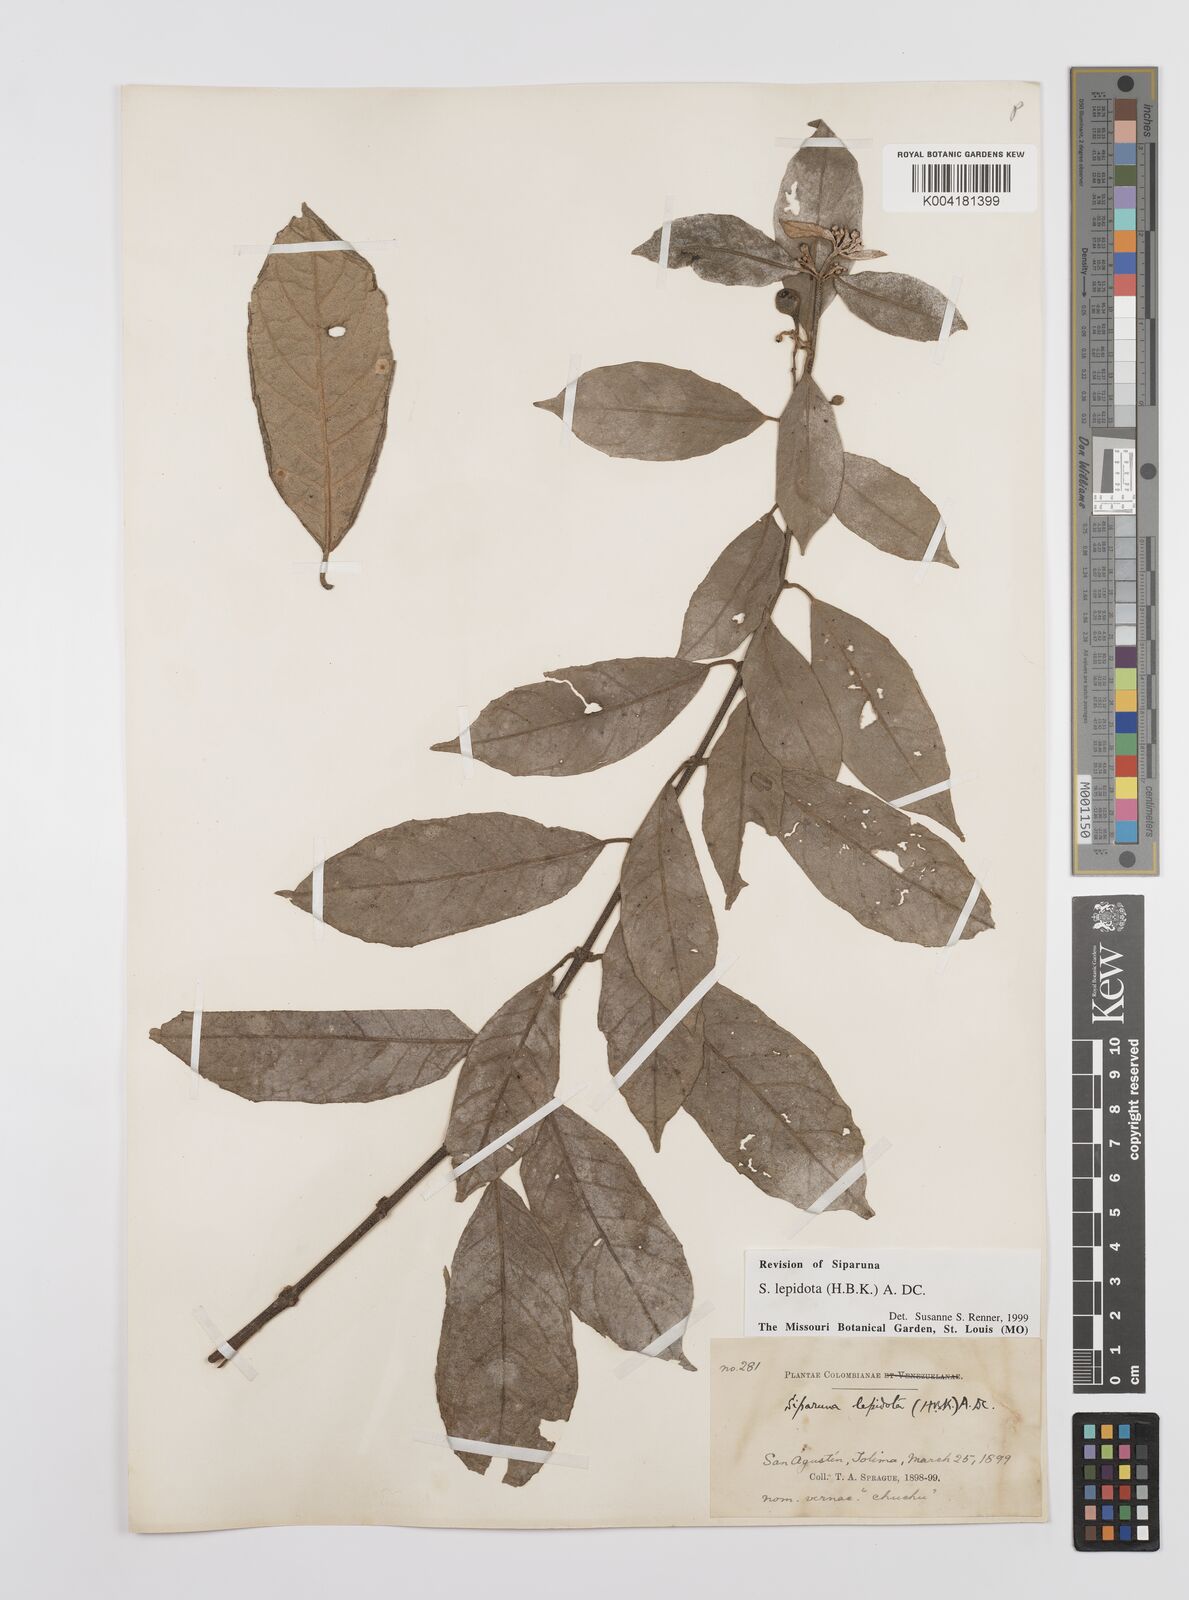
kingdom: Plantae
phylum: Tracheophyta
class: Magnoliopsida
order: Laurales
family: Siparunaceae
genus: Siparuna
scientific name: Siparuna lepidota
